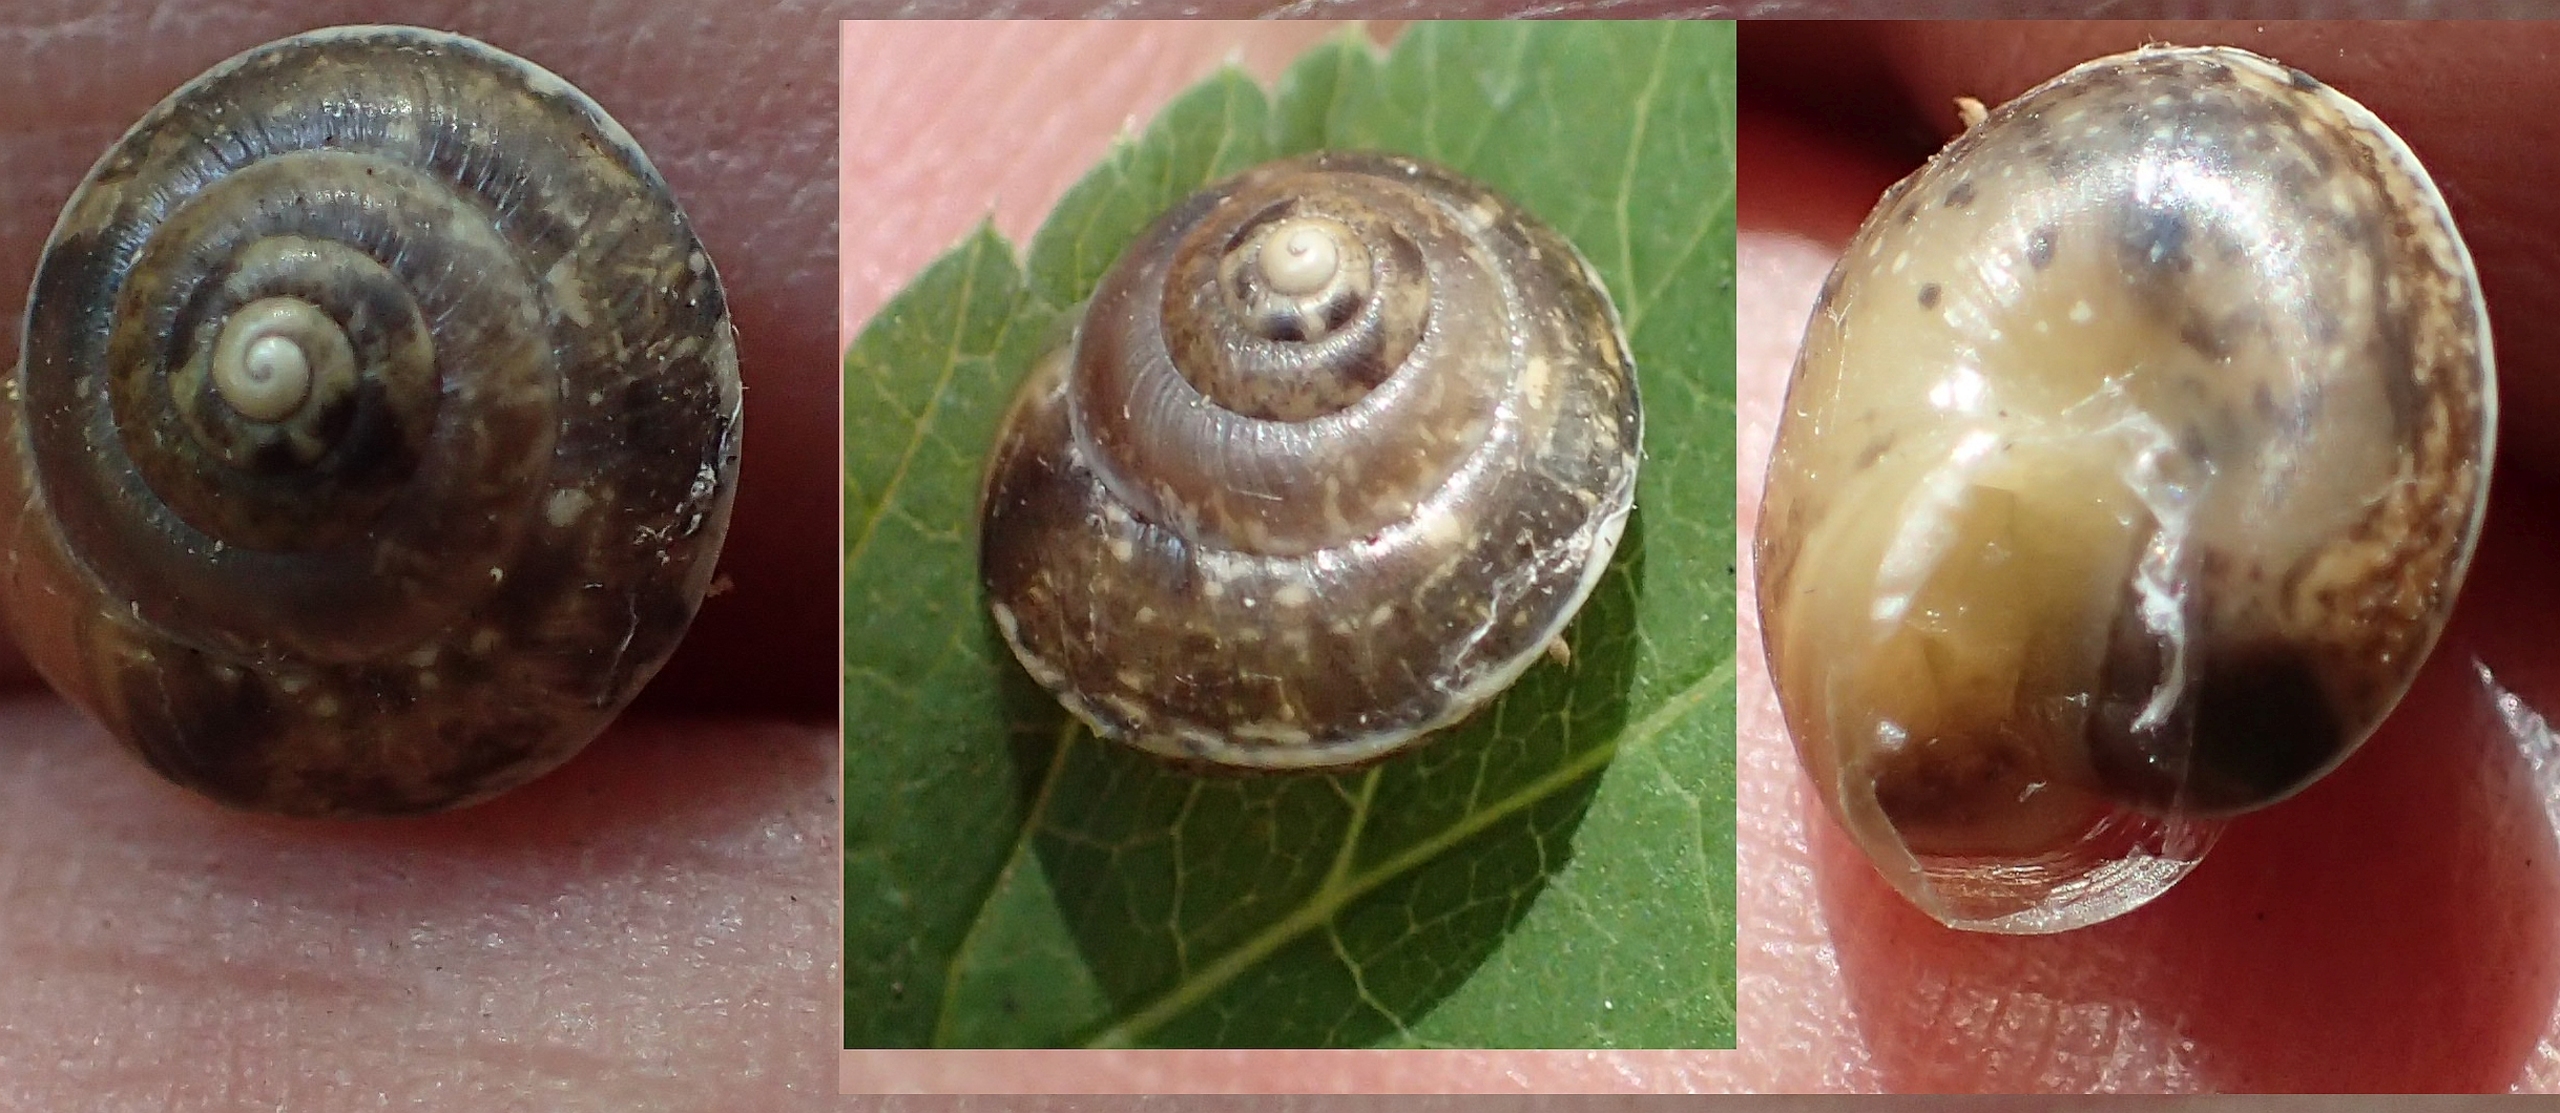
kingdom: Animalia
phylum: Mollusca
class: Gastropoda
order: Stylommatophora
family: Hygromiidae
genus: Hygromia
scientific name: Hygromia cinctella
